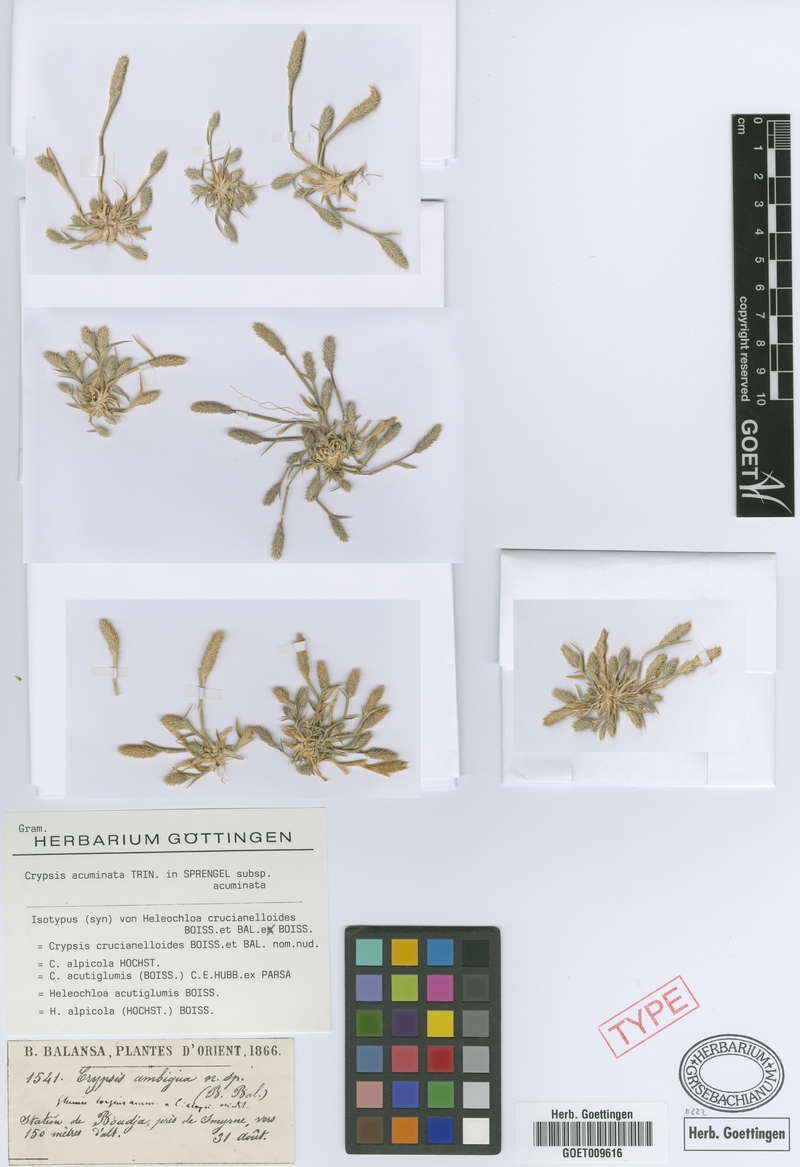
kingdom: Plantae
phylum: Tracheophyta
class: Liliopsida
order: Poales
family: Poaceae
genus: Sporobolus
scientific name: Sporobolus borszczowii
